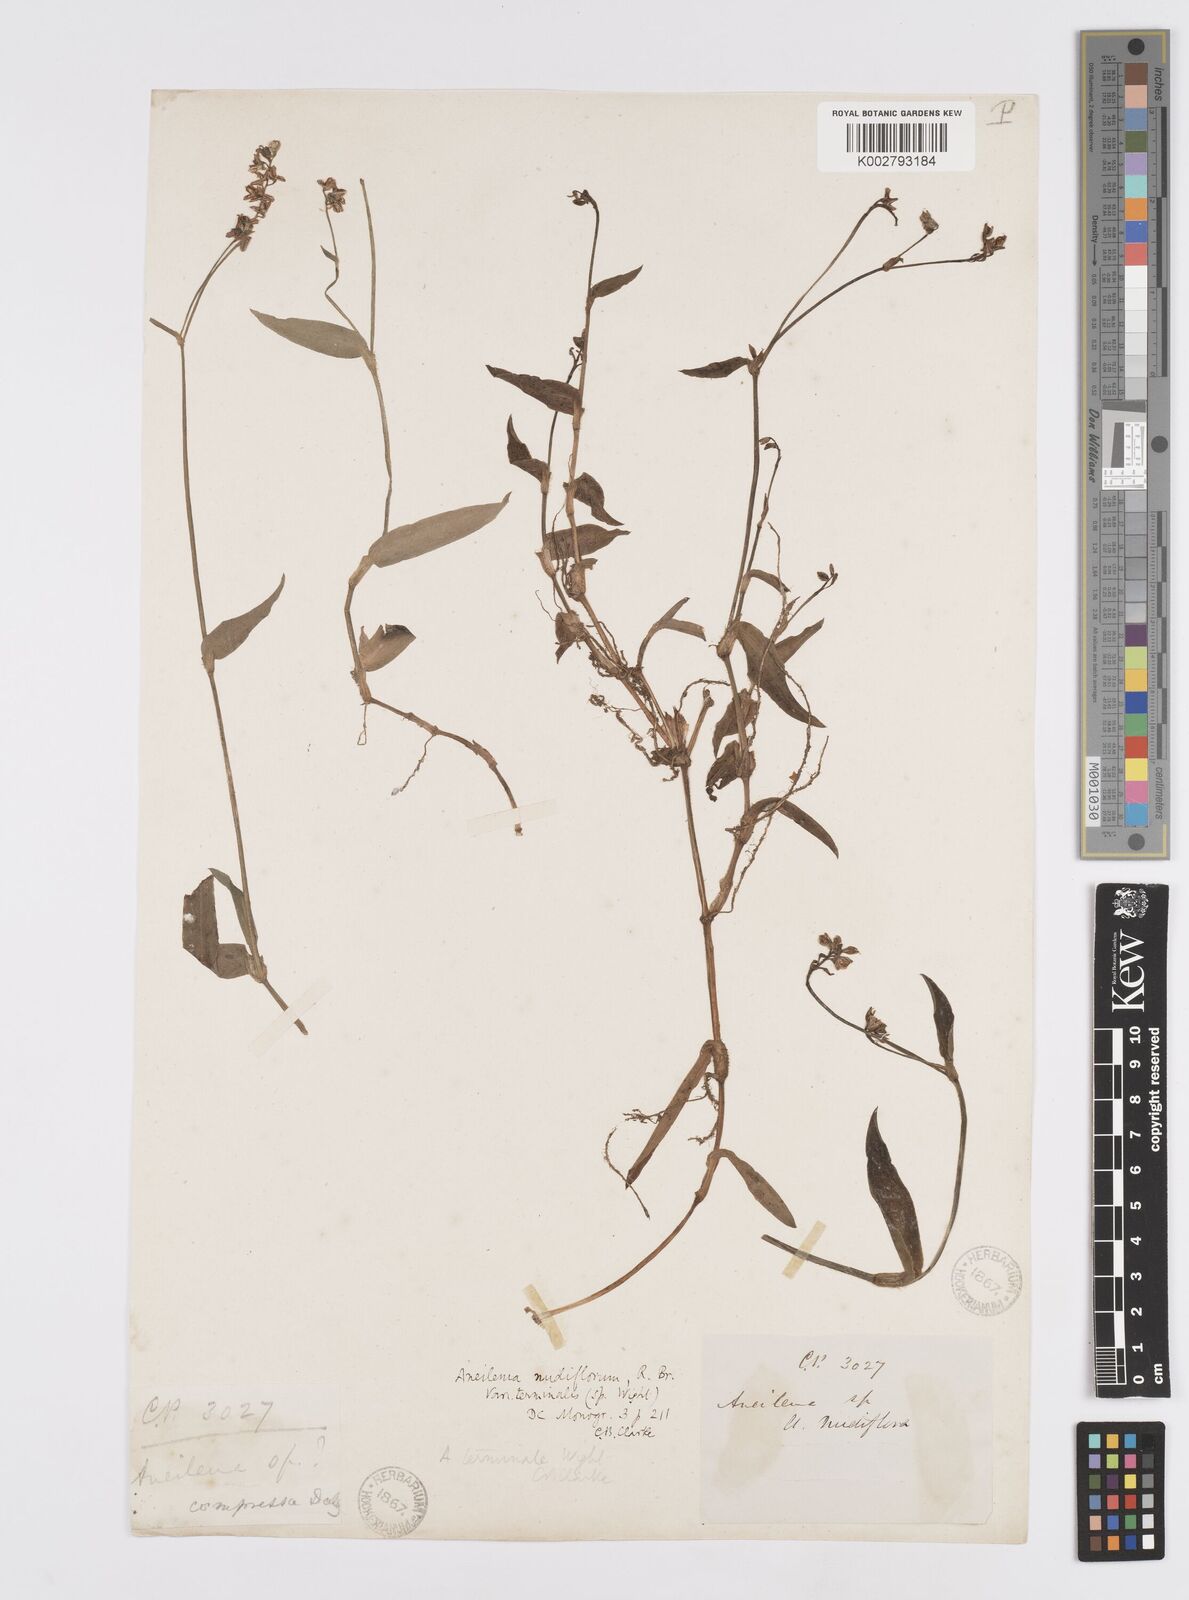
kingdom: Plantae
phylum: Tracheophyta
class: Liliopsida
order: Commelinales
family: Commelinaceae
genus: Murdannia
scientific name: Murdannia nudiflora
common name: Nakedstem dewflower
